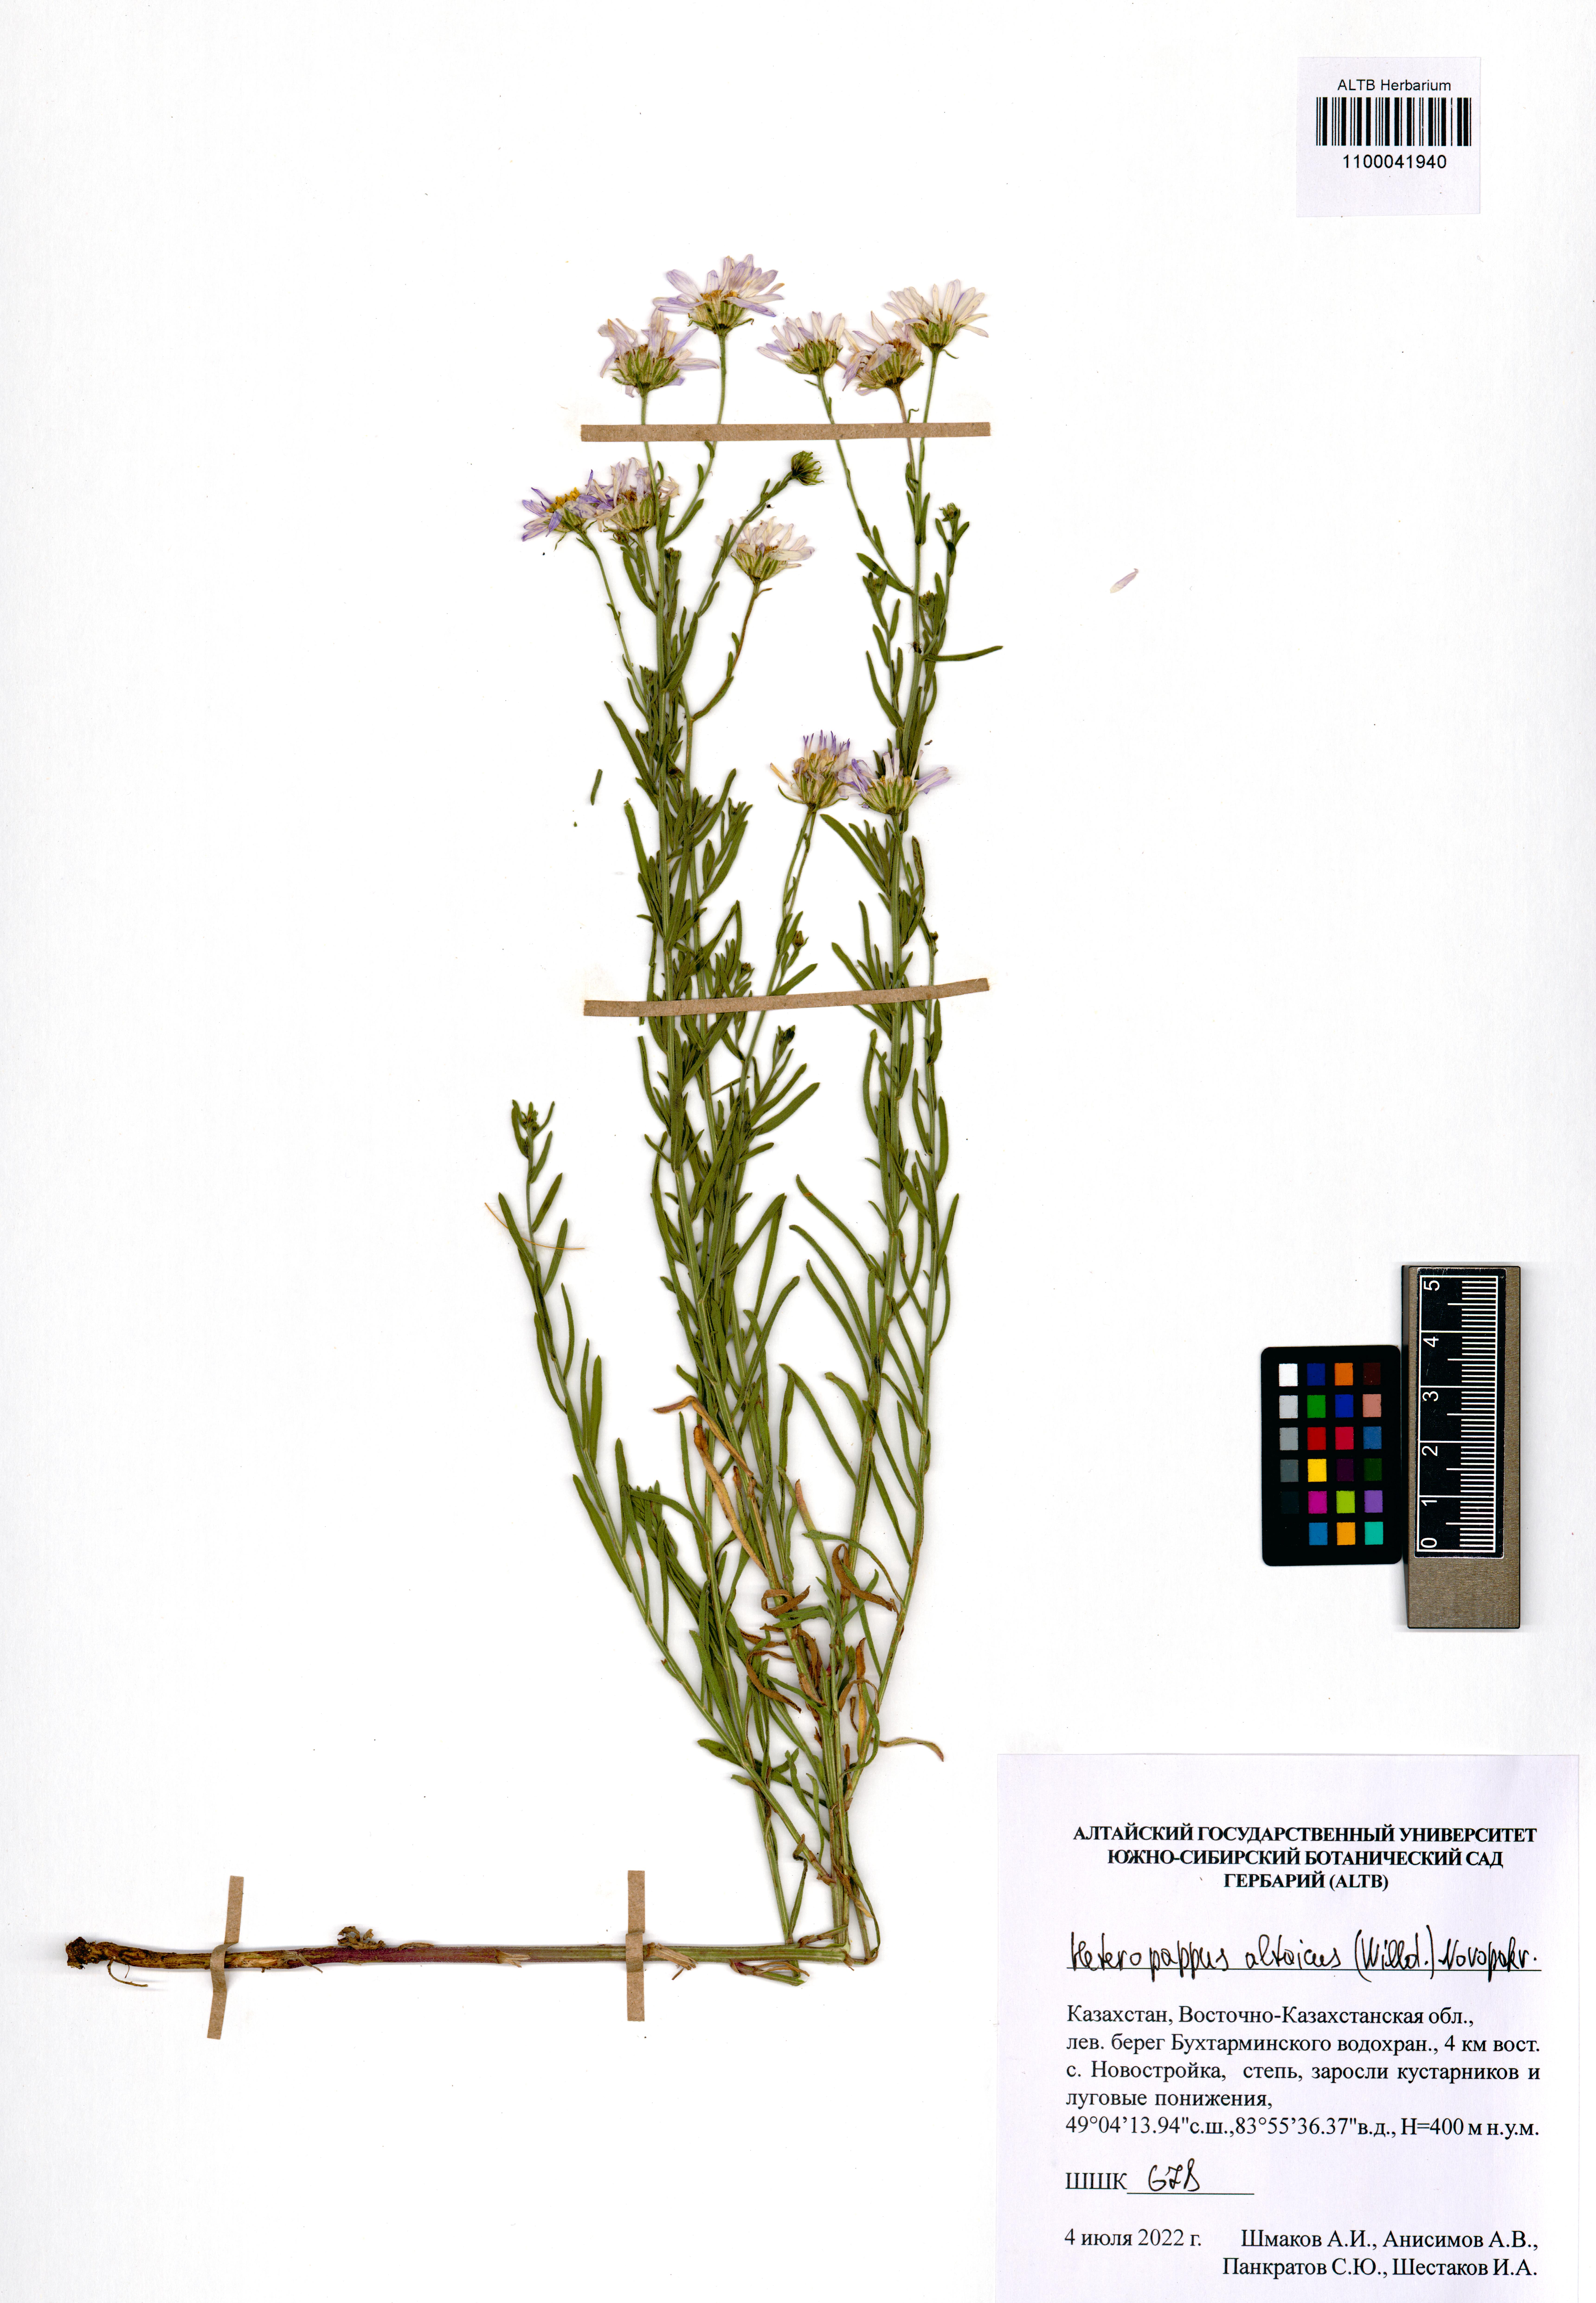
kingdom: Plantae
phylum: Tracheophyta
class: Magnoliopsida
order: Asterales
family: Asteraceae
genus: Heteropappus
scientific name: Heteropappus altaicus
